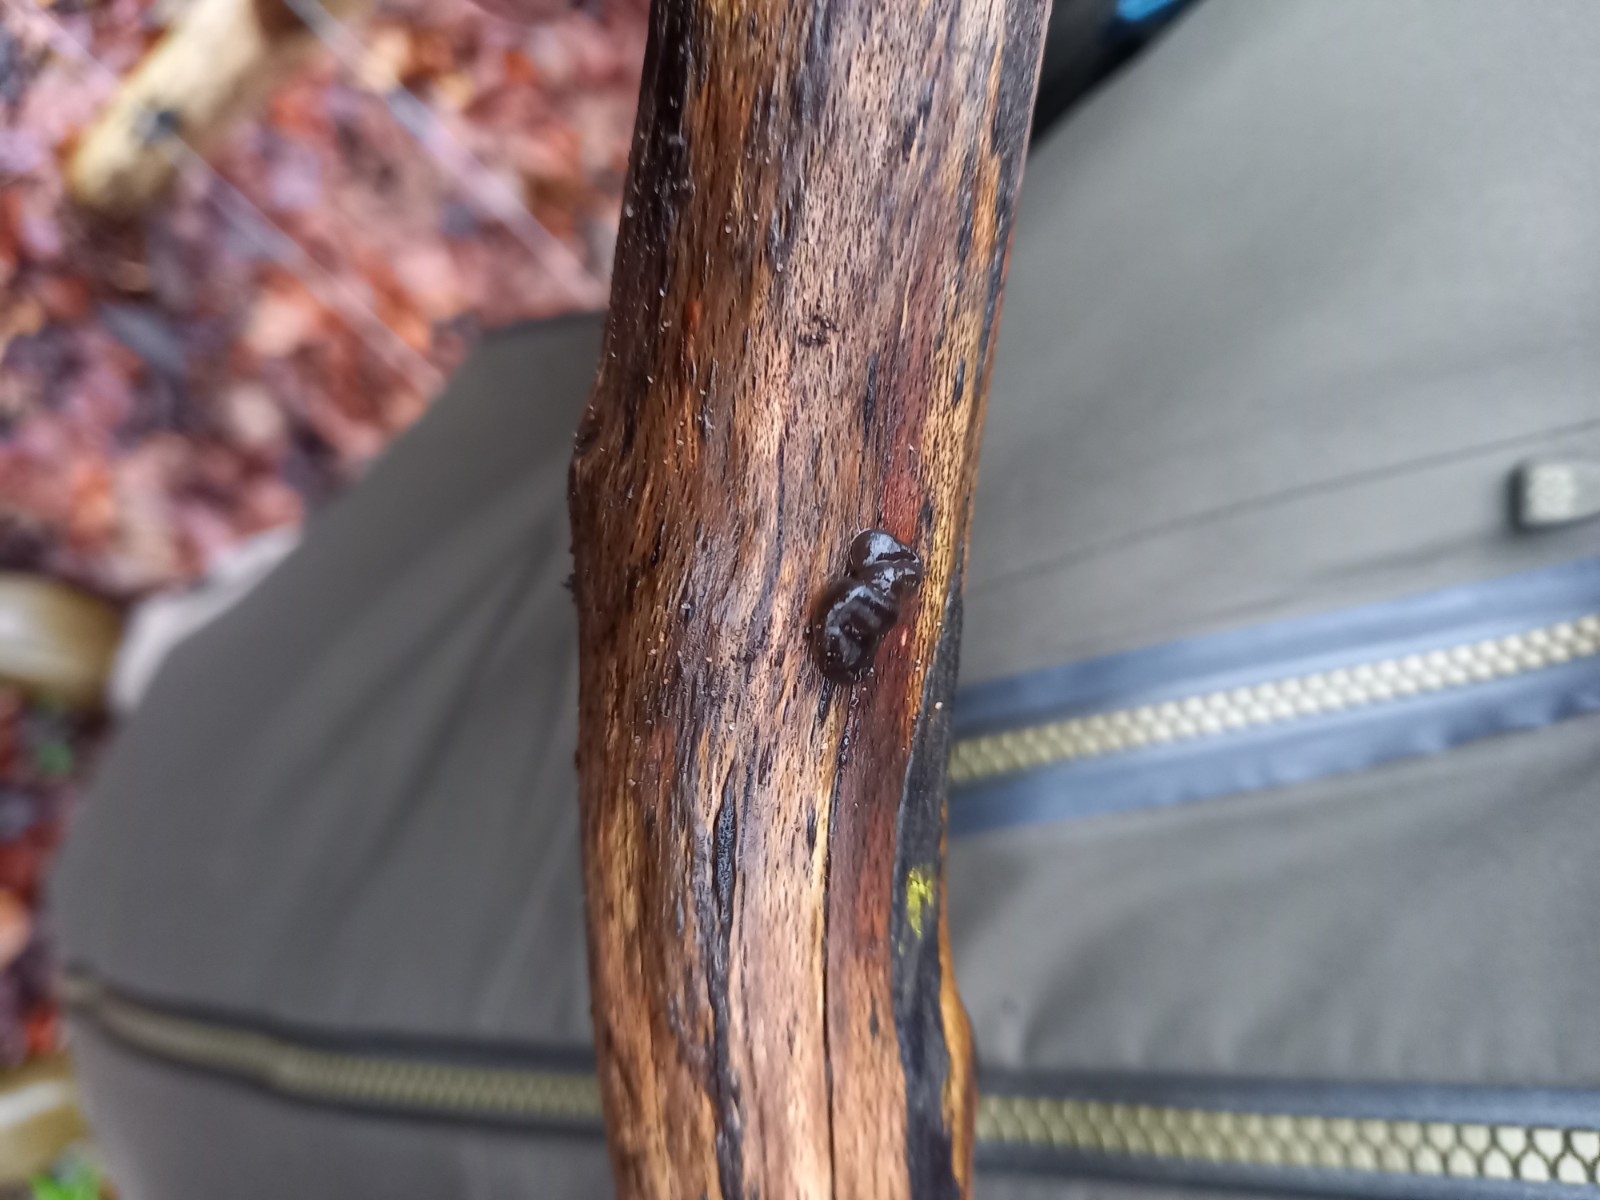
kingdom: Fungi
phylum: Basidiomycota
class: Agaricomycetes
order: Auriculariales
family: Auriculariaceae
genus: Exidia
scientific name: Exidia nigricans
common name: almindelig bævretop
